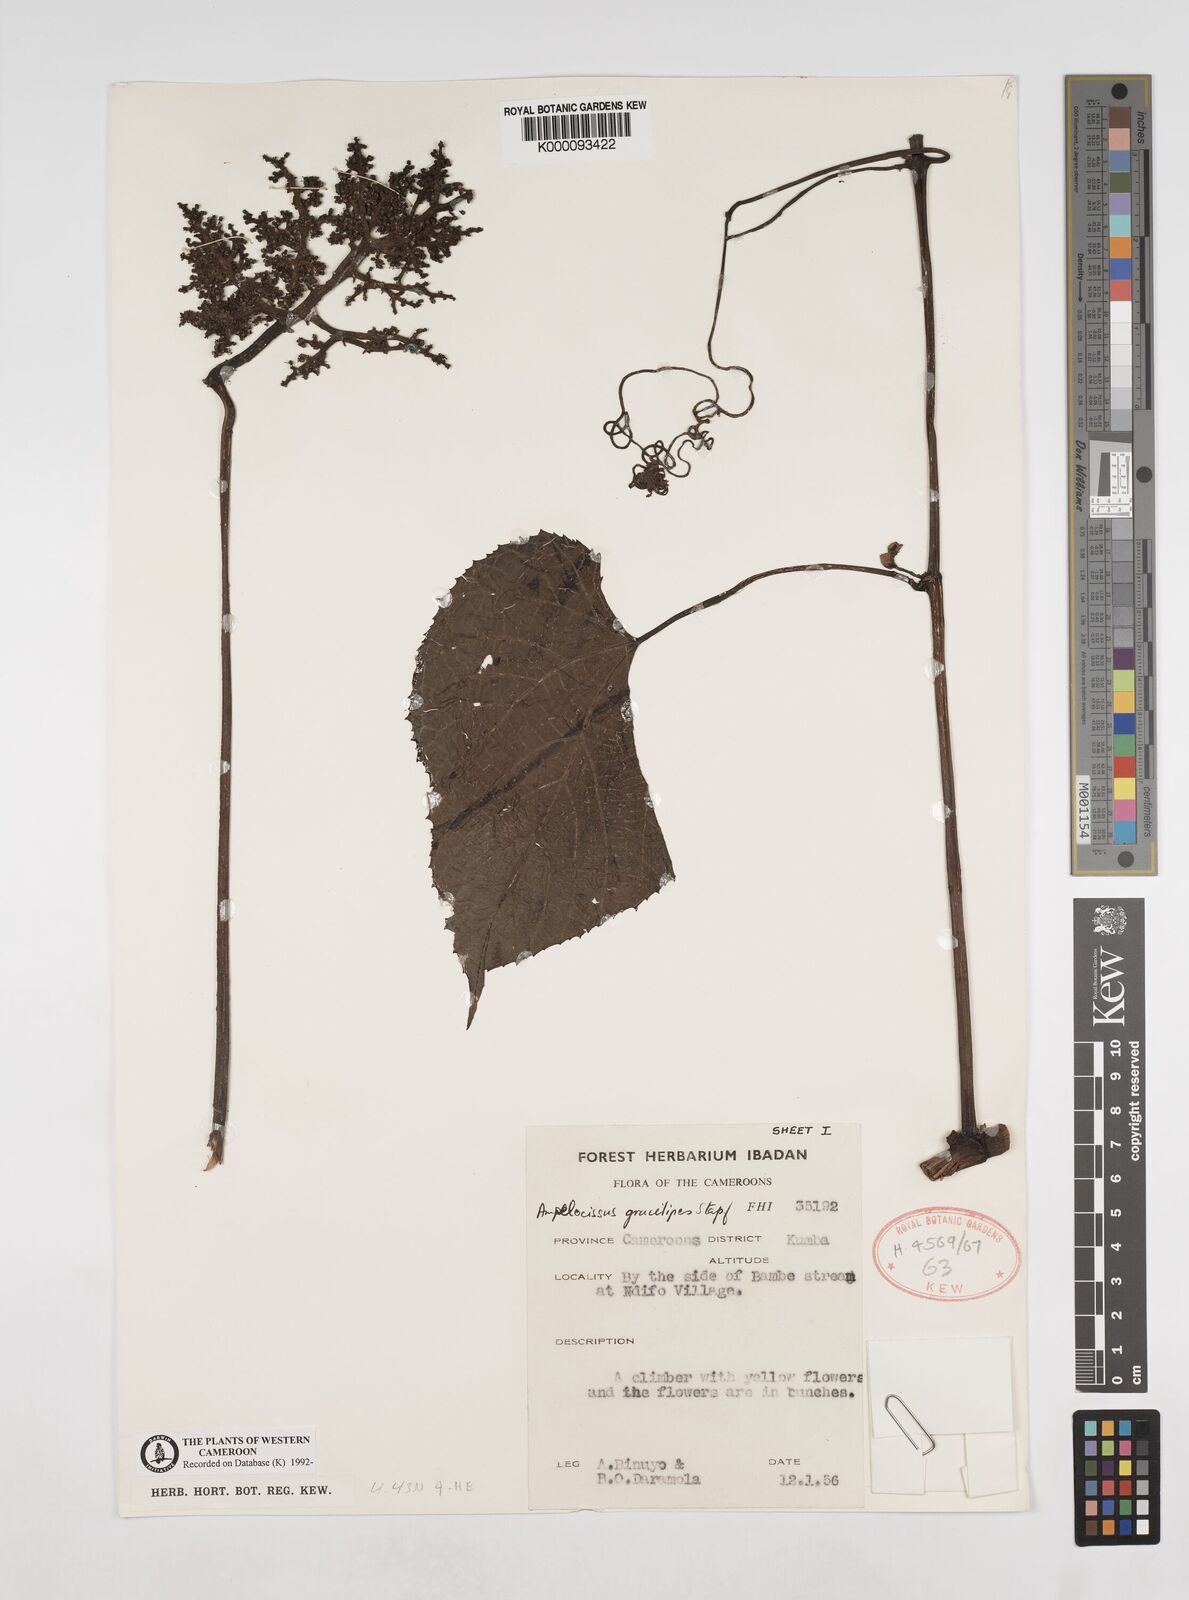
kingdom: Plantae
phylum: Tracheophyta
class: Magnoliopsida
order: Vitales
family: Vitaceae
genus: Ampelocissus
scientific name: Ampelocissus gracilipes
